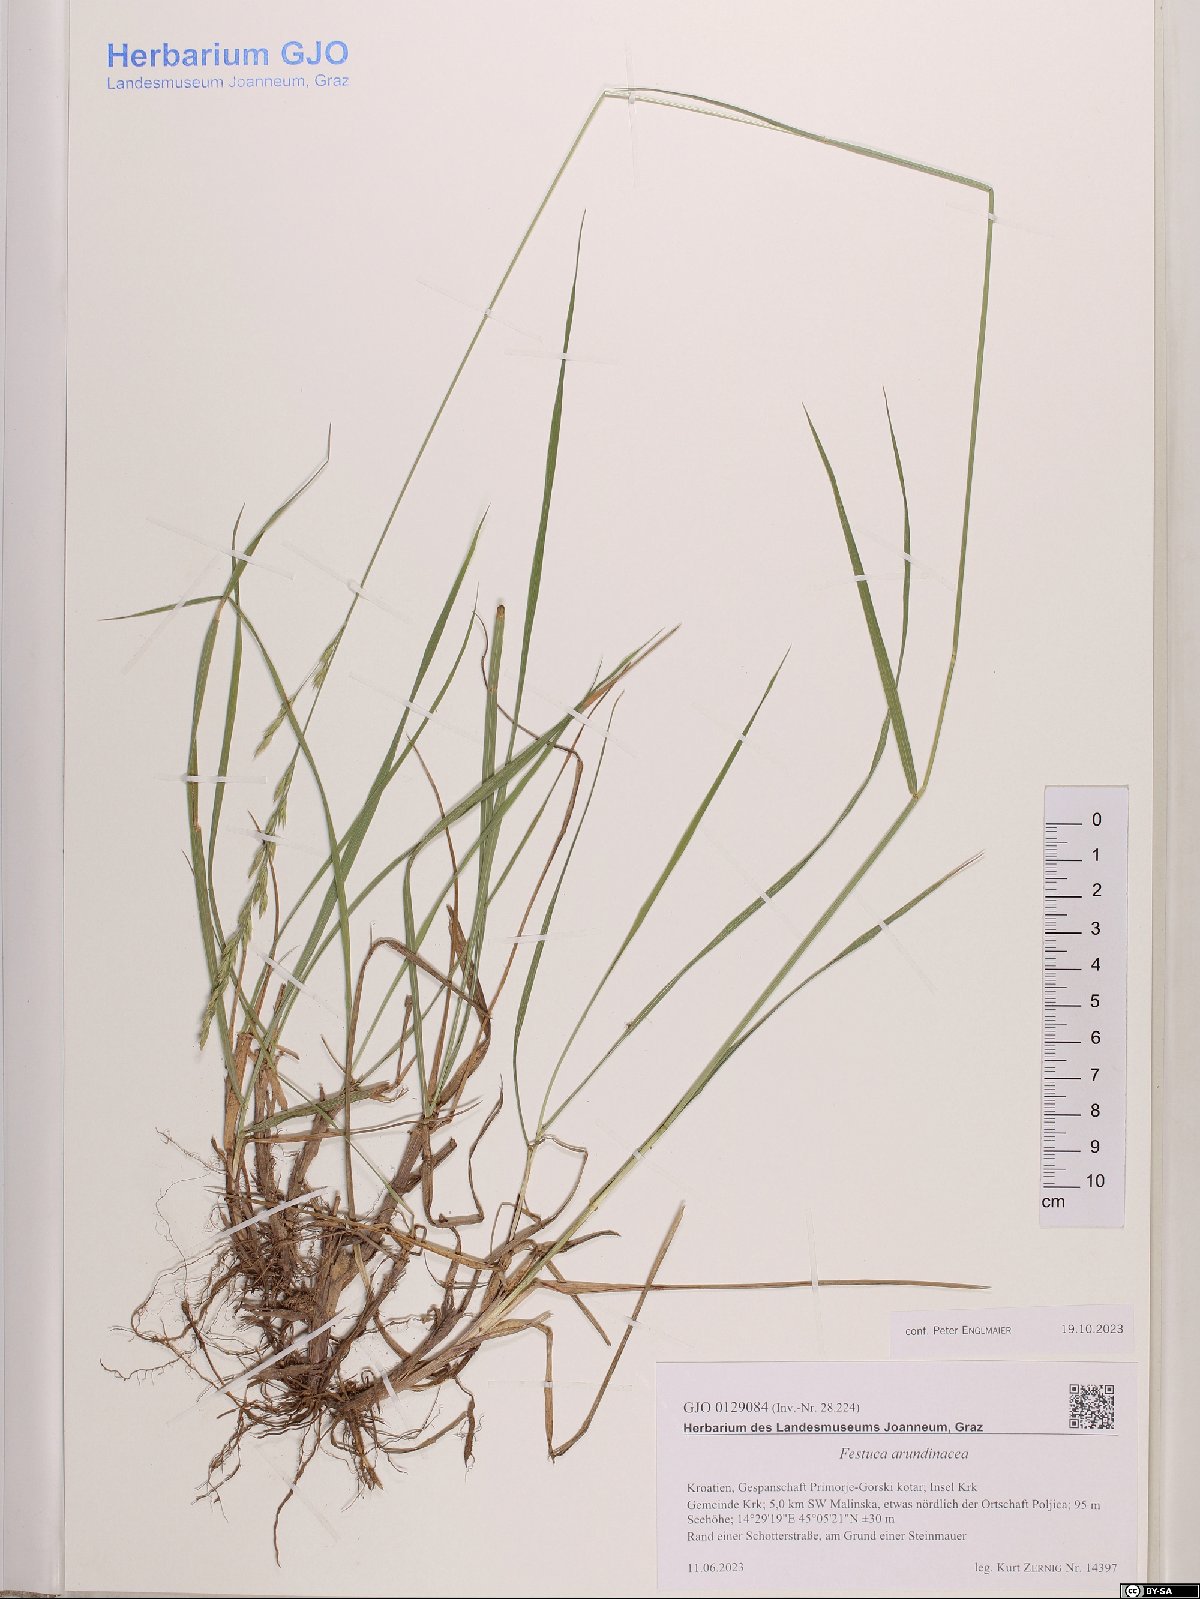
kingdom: Plantae
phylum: Tracheophyta
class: Liliopsida
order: Poales
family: Poaceae
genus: Lolium
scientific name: Lolium arundinaceum
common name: Reed fescue
